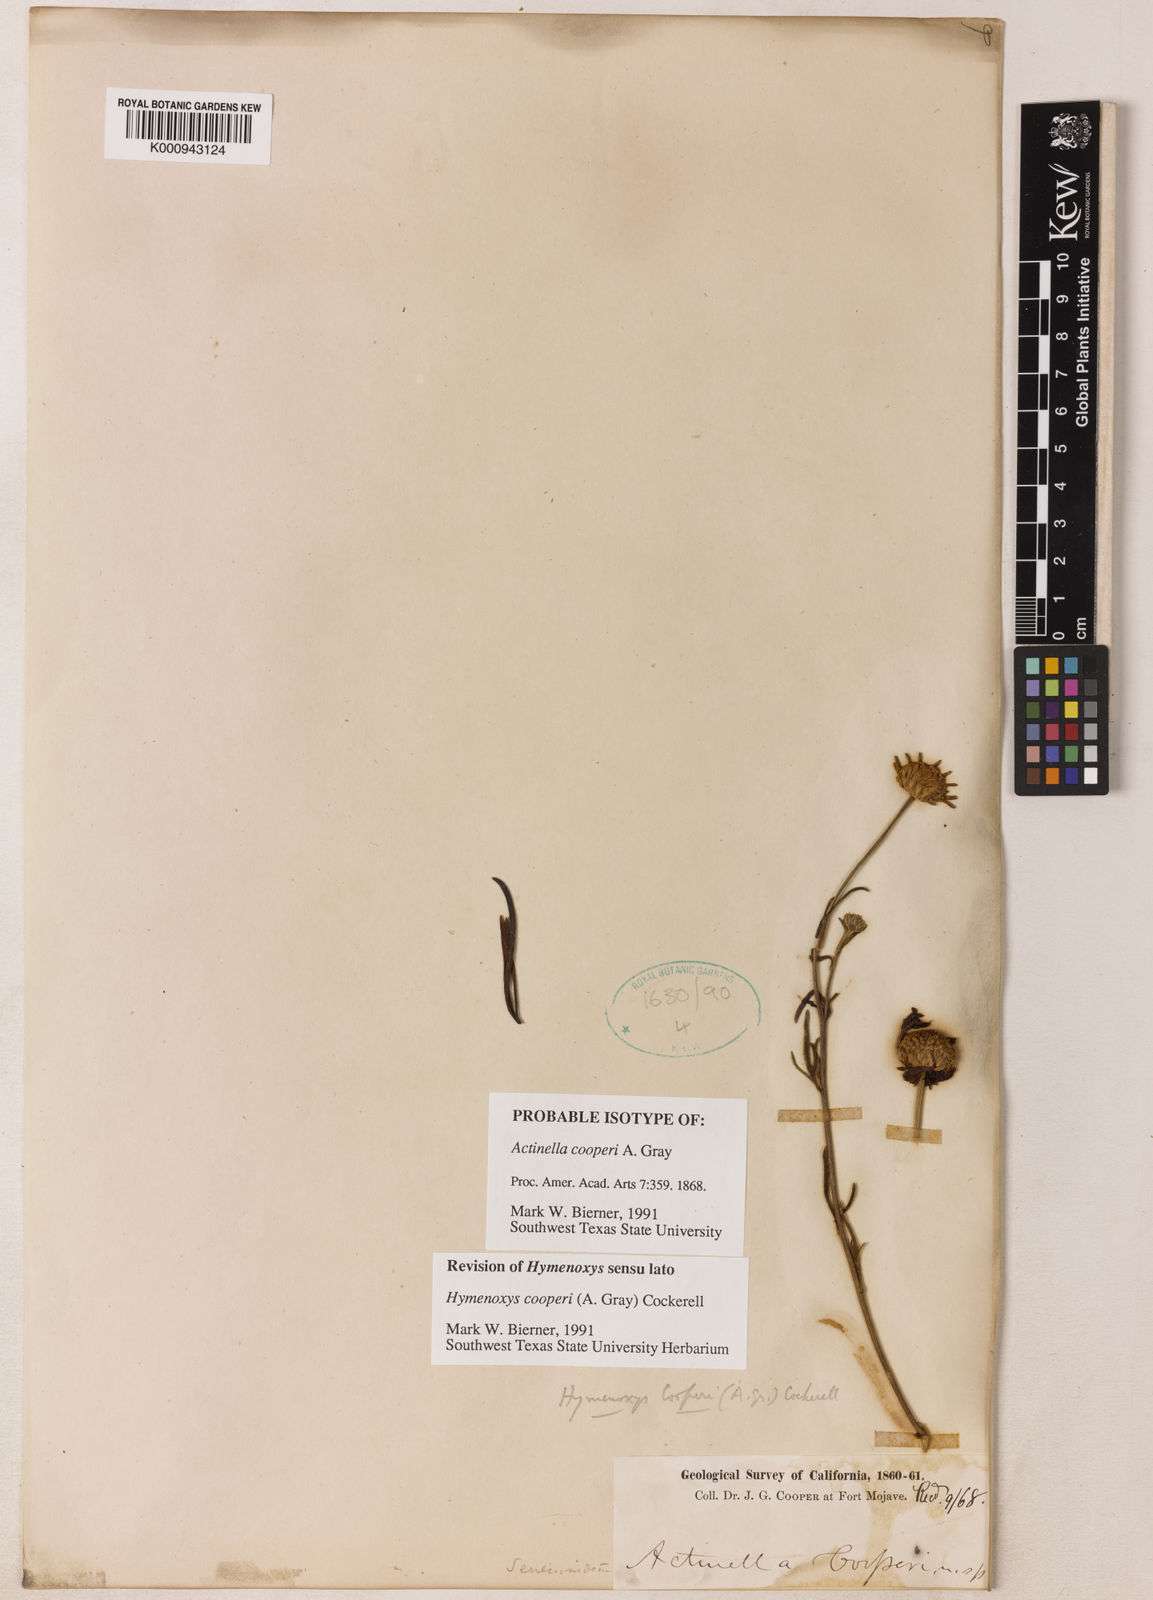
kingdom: Plantae
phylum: Tracheophyta
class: Magnoliopsida
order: Asterales
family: Asteraceae
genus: Hymenoxys
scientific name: Hymenoxys cooperi
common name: Cooper's bitterweed
